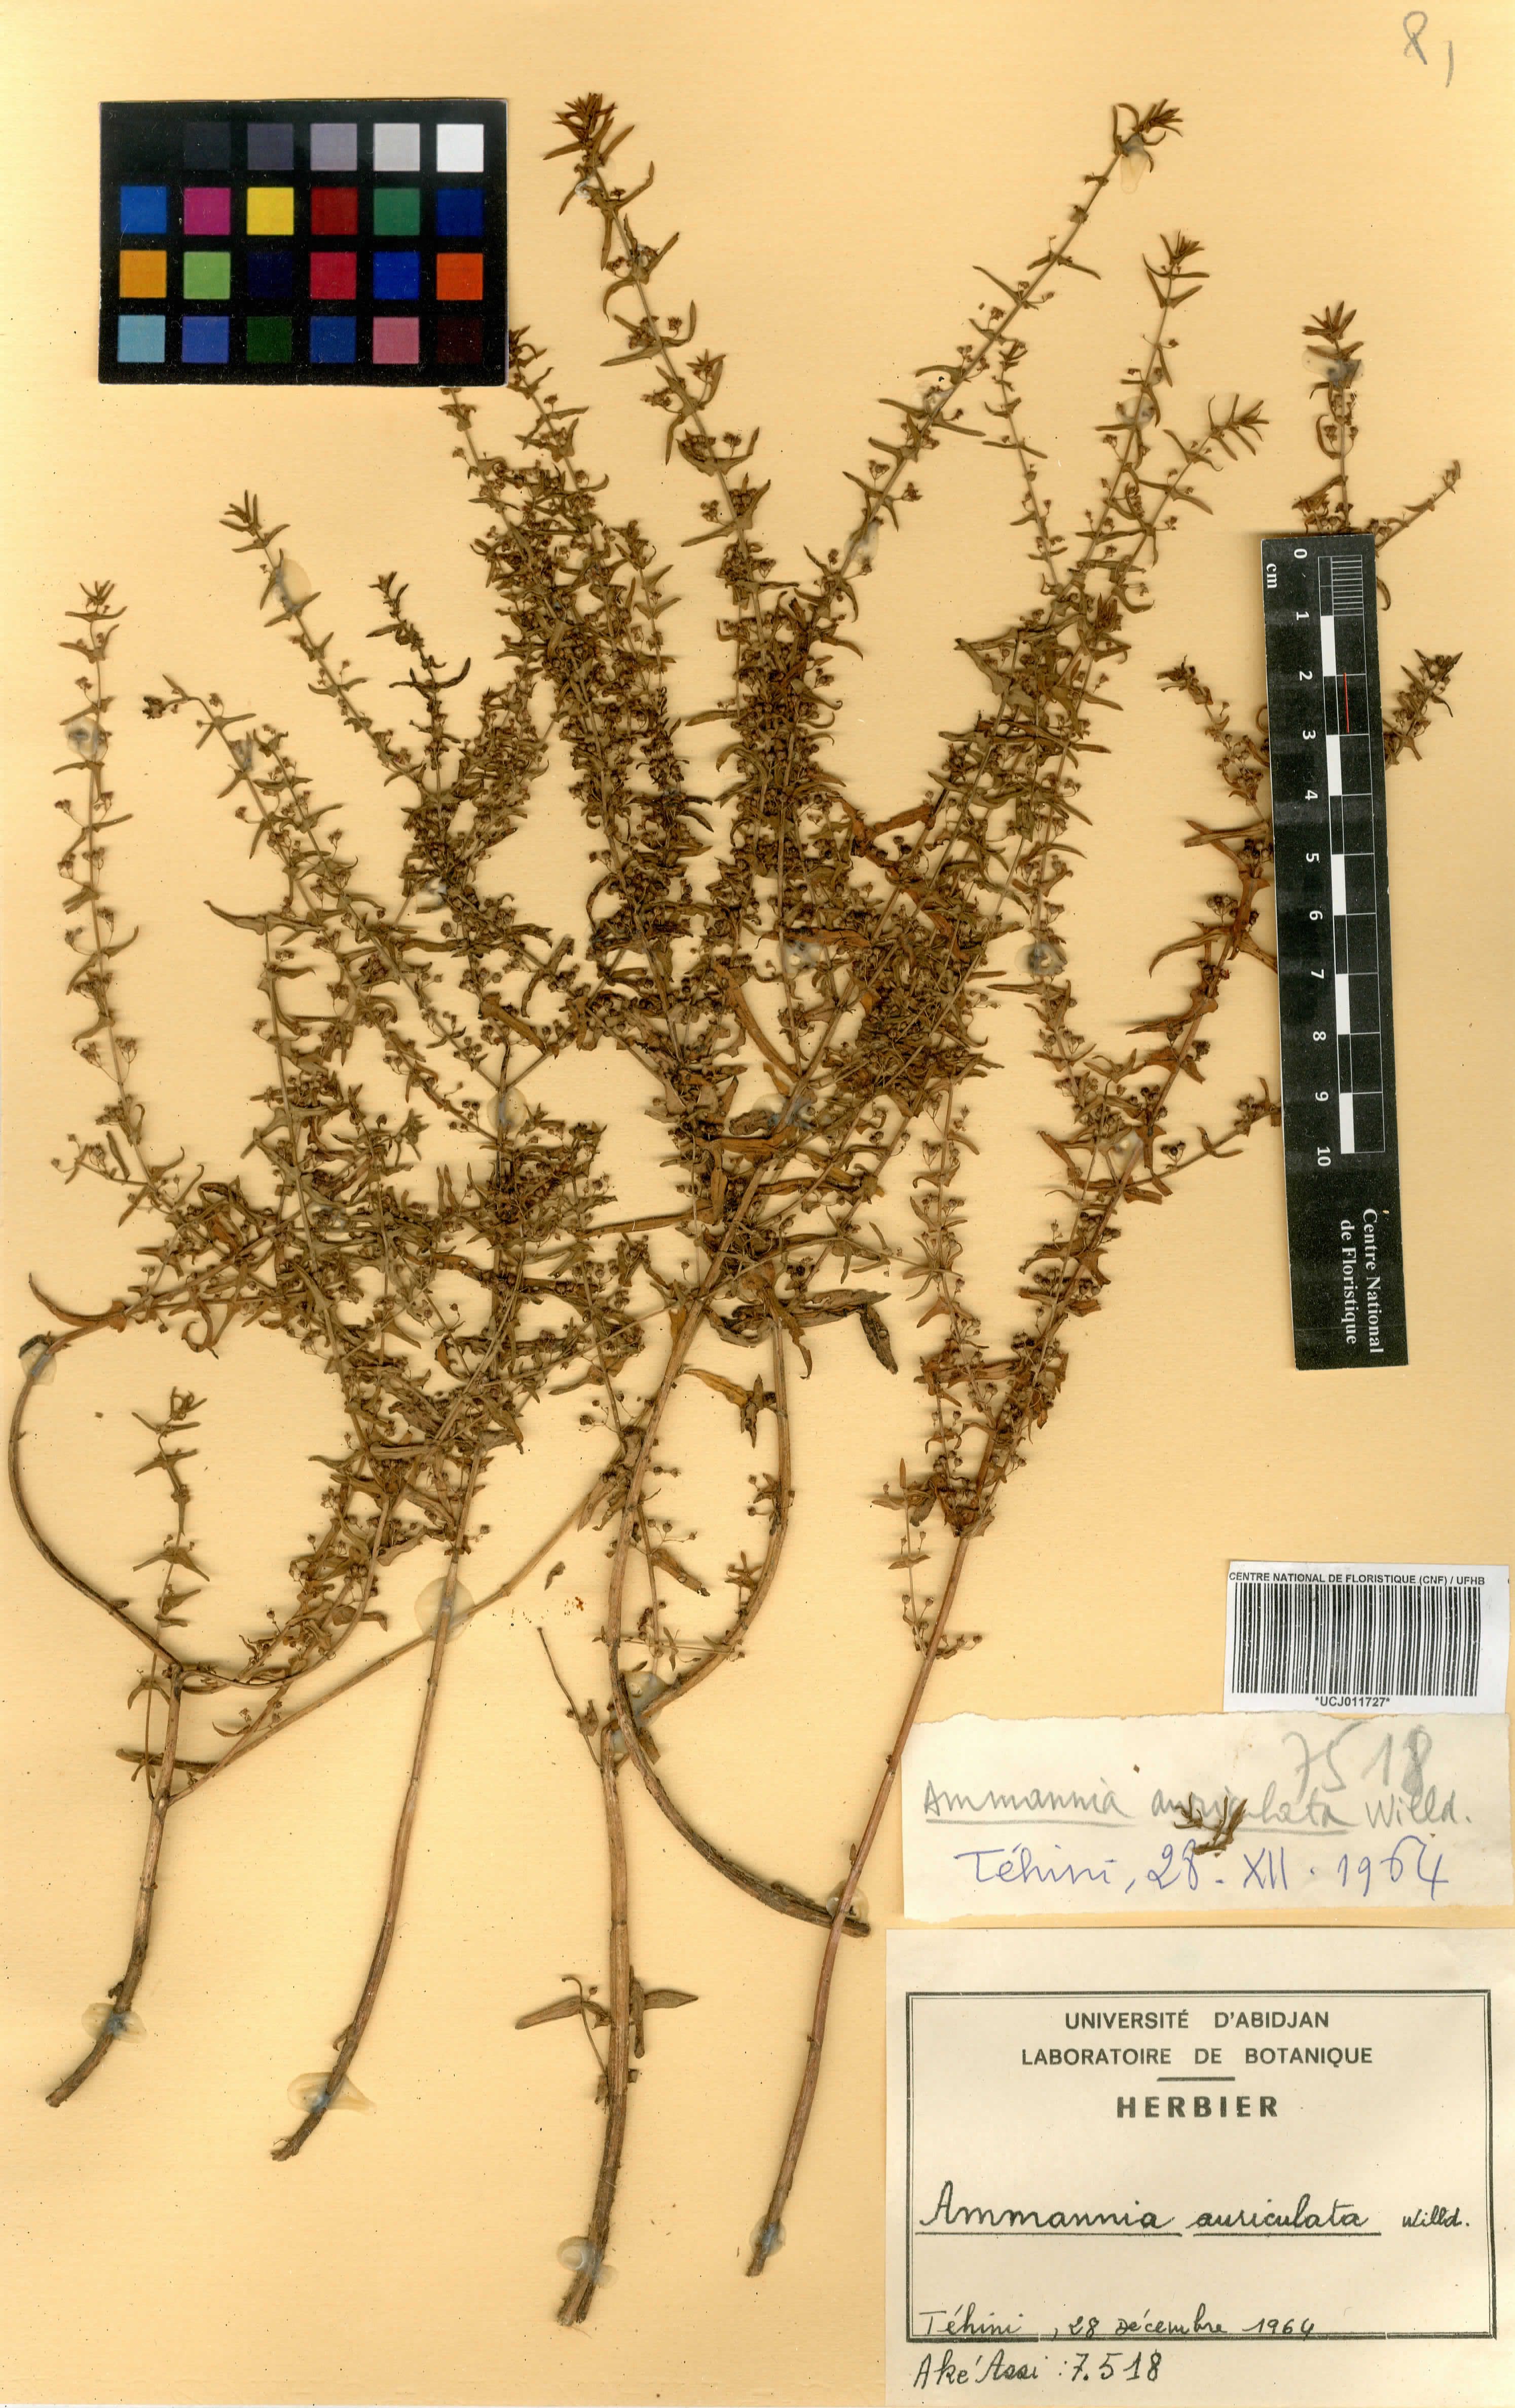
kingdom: Plantae
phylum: Tracheophyta
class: Magnoliopsida
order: Myrtales
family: Lythraceae
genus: Ammannia
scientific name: Ammannia auriculata
